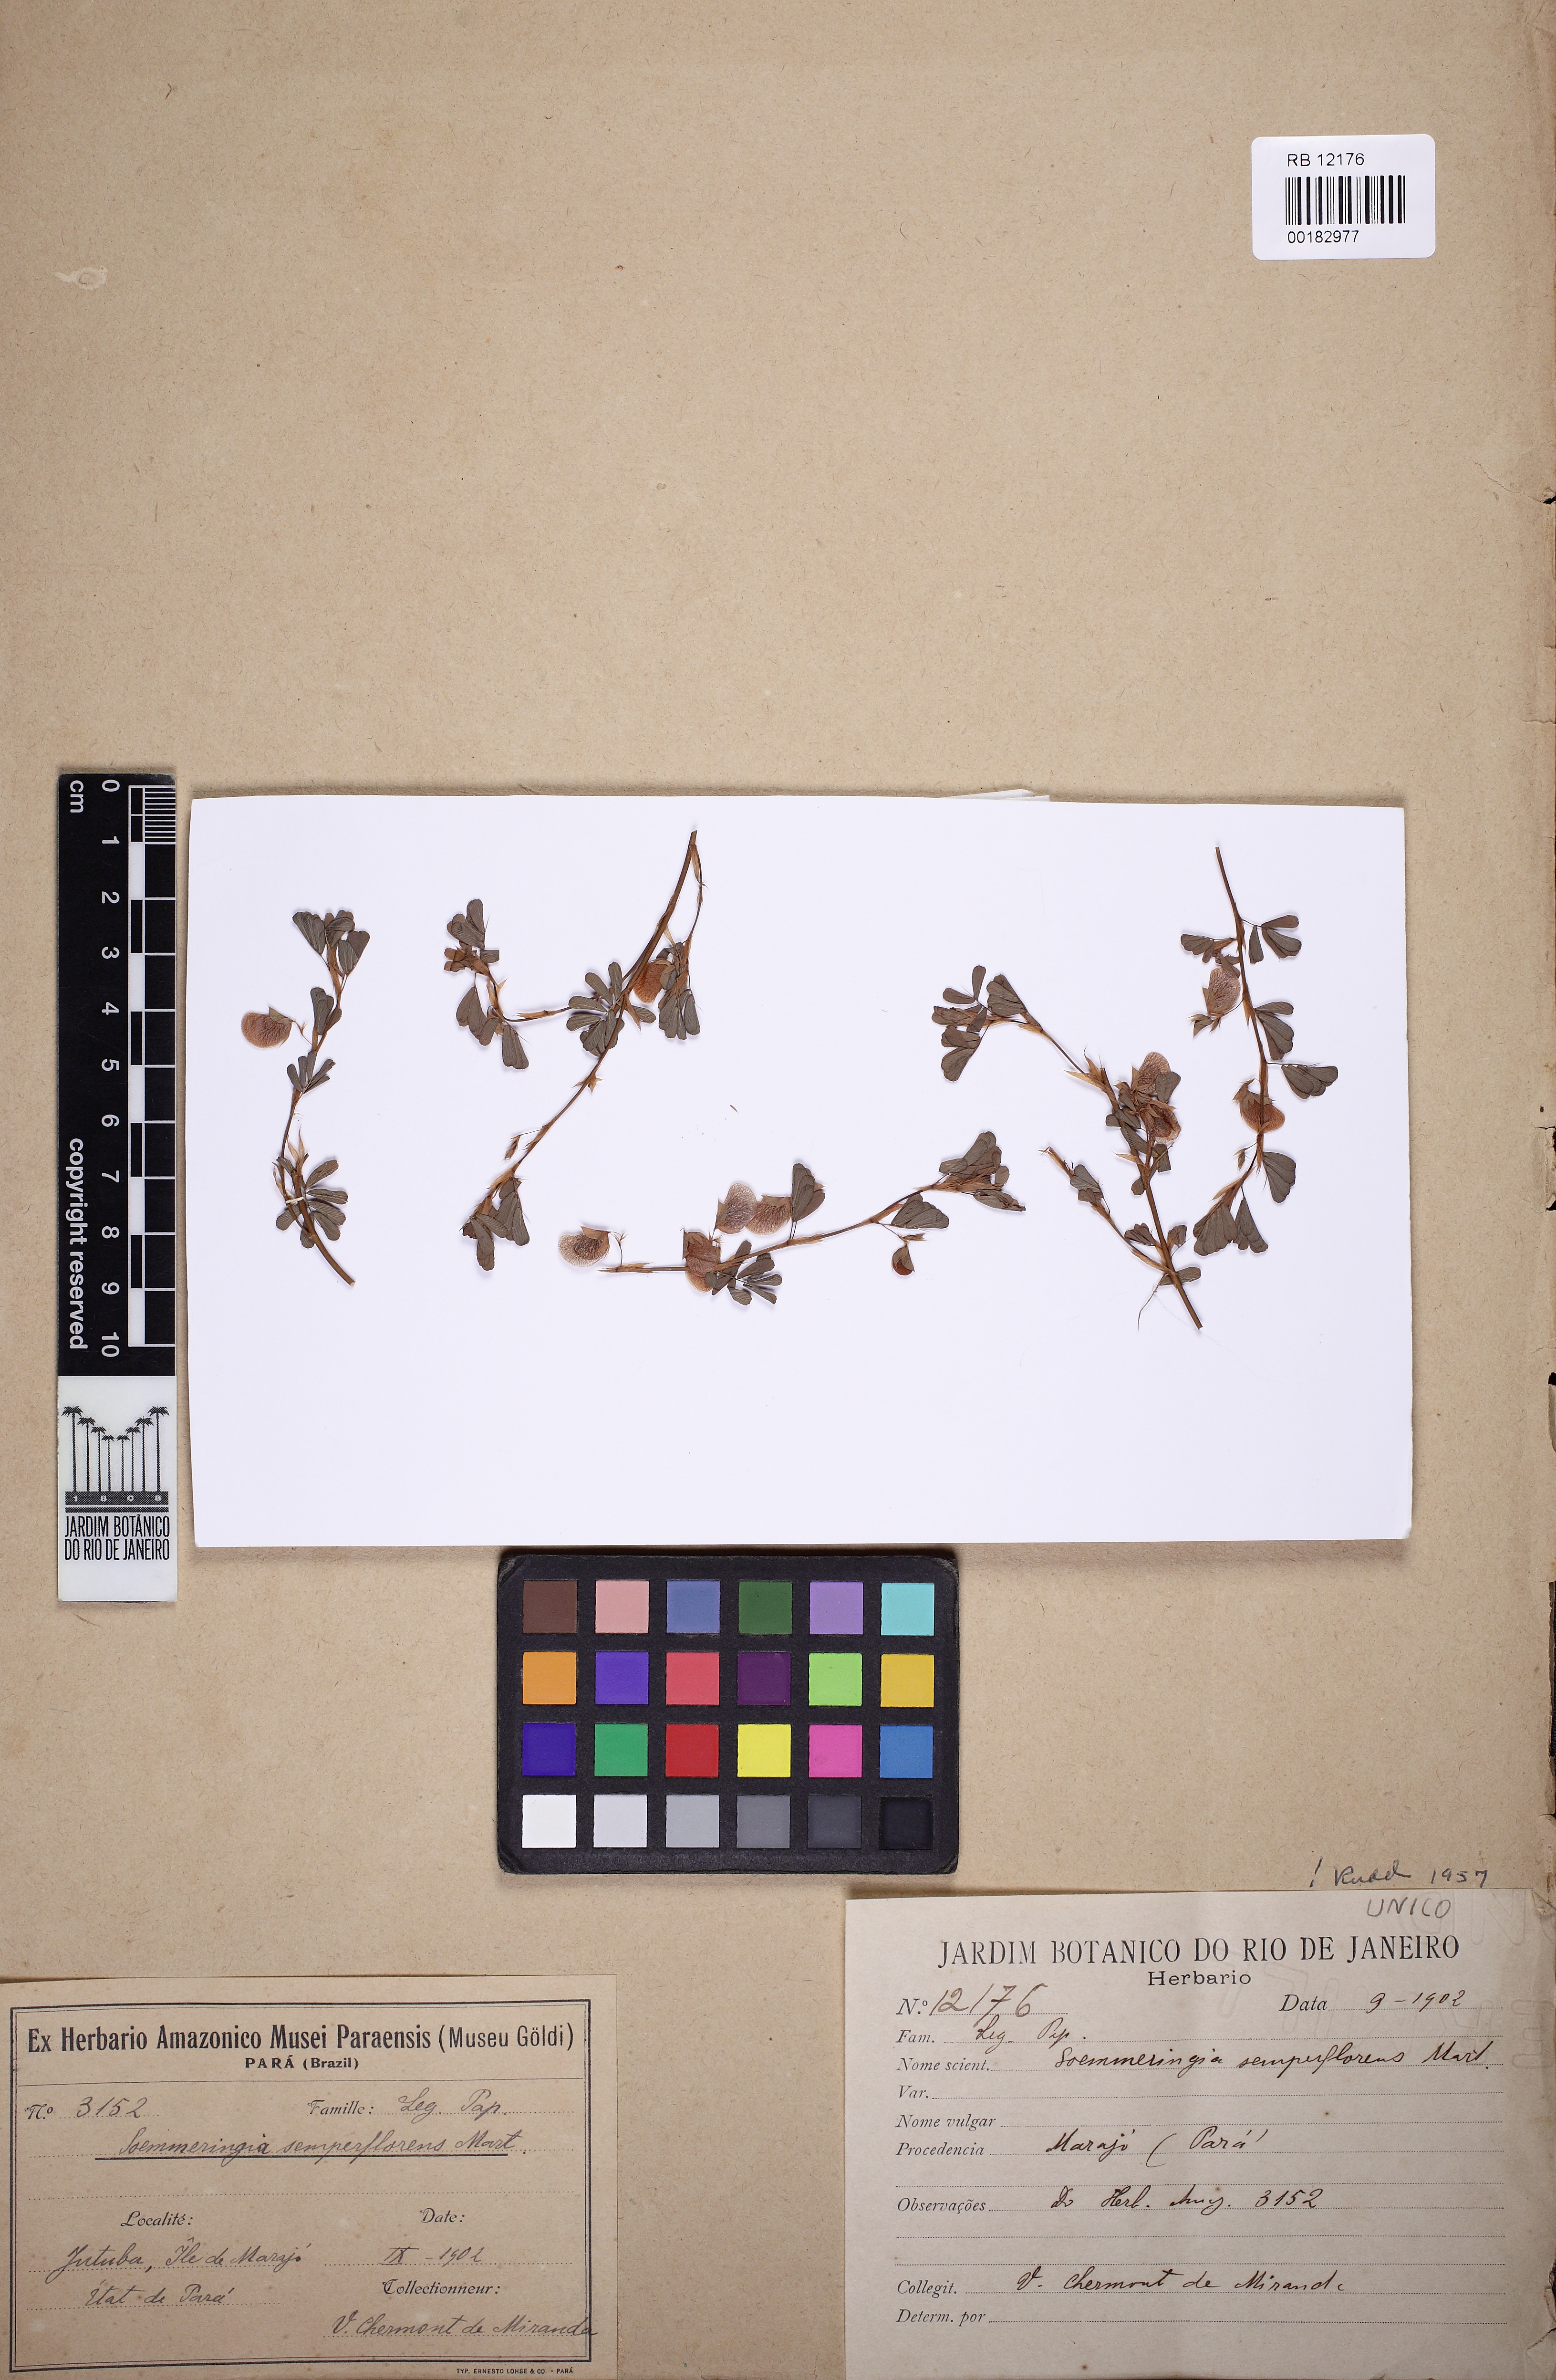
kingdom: Plantae
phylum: Tracheophyta
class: Magnoliopsida
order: Fabales
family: Fabaceae
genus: Soemmeringia
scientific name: Soemmeringia semperflorens
